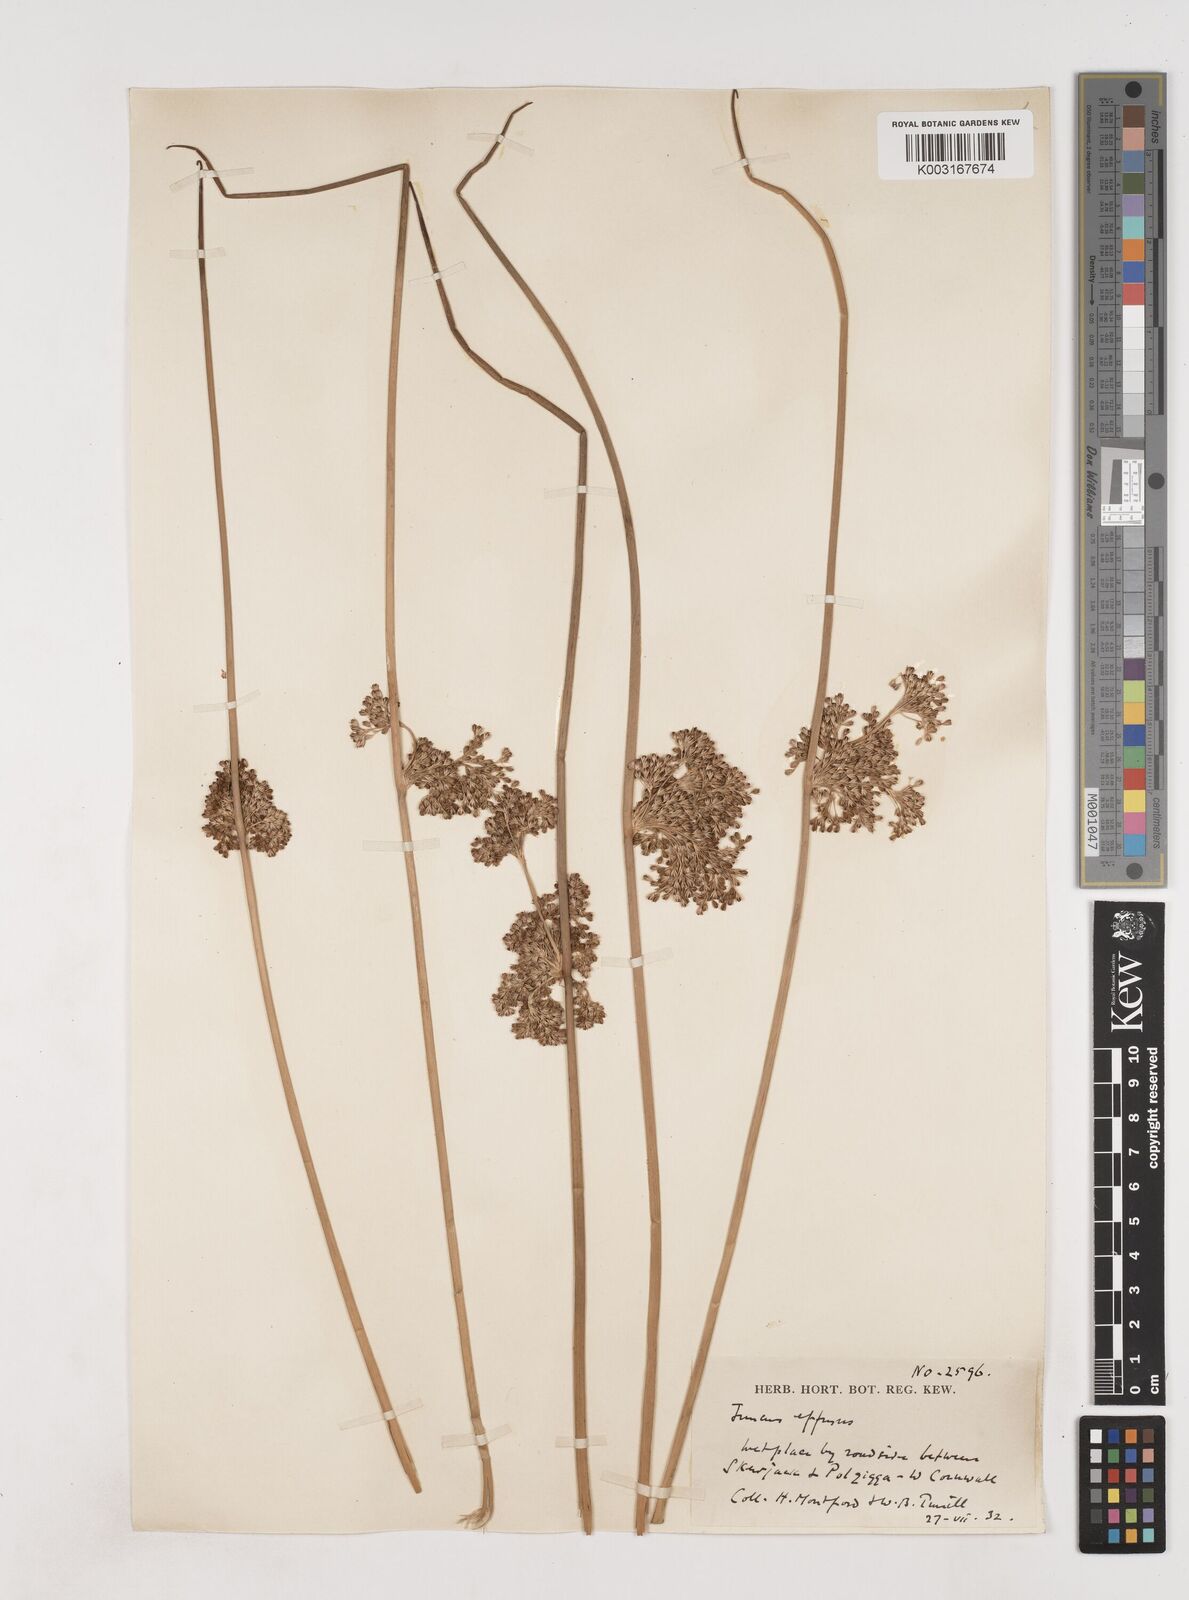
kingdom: Plantae
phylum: Tracheophyta
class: Liliopsida
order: Poales
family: Juncaceae
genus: Juncus
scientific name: Juncus effusus
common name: Soft rush
